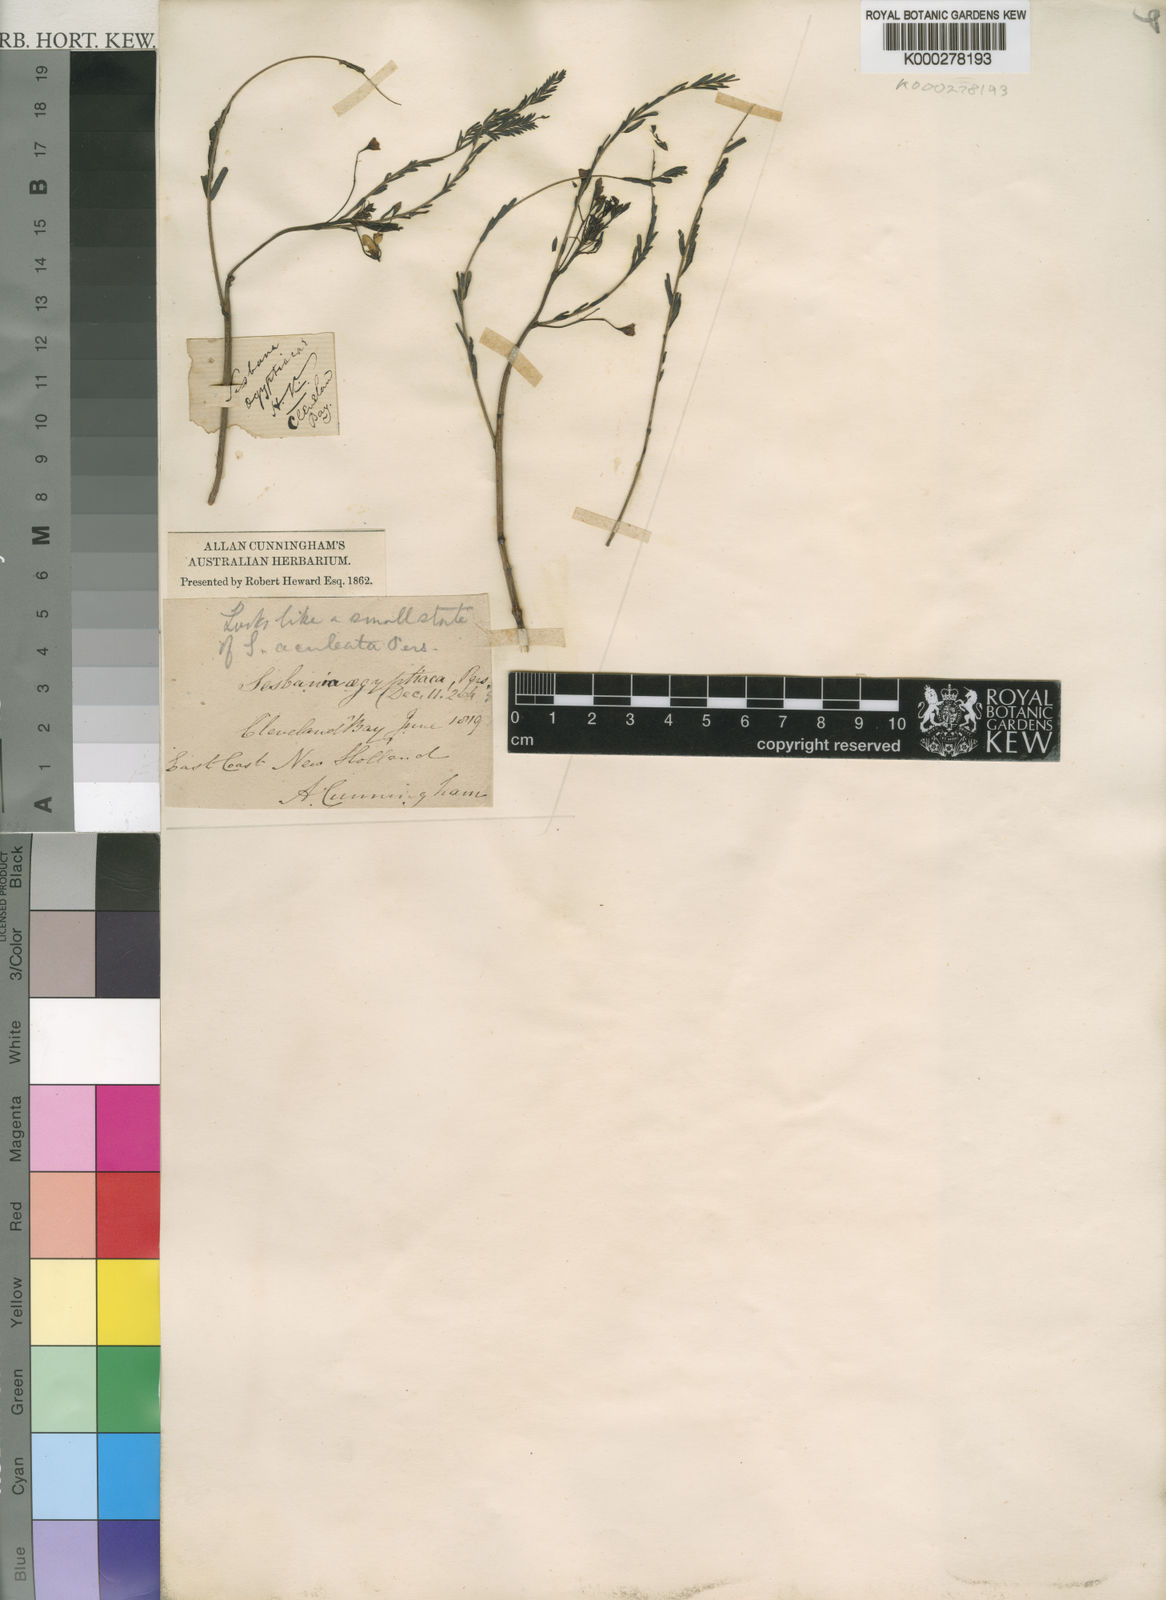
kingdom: Plantae
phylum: Tracheophyta
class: Magnoliopsida
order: Fabales
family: Fabaceae
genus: Sesbania
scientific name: Sesbania
